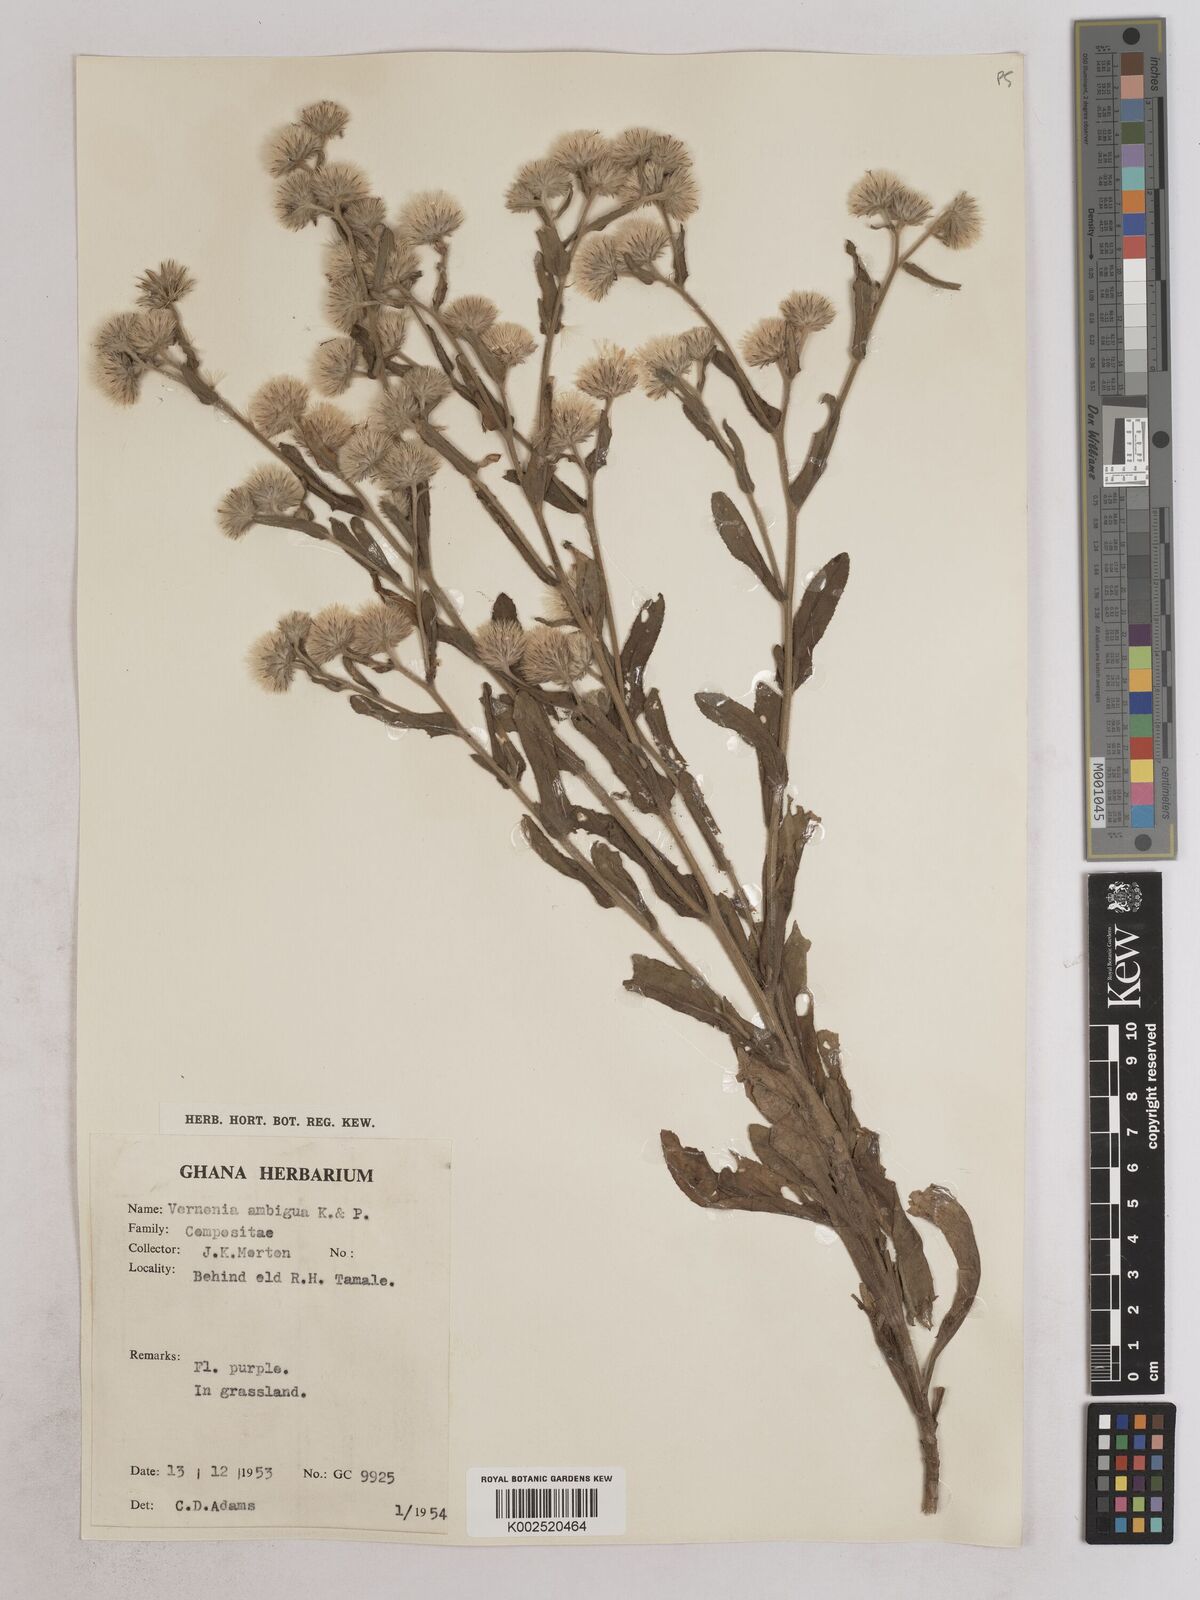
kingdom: Plantae
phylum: Tracheophyta
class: Magnoliopsida
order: Asterales
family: Asteraceae
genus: Vernoniastrum
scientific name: Vernoniastrum ambiguum
